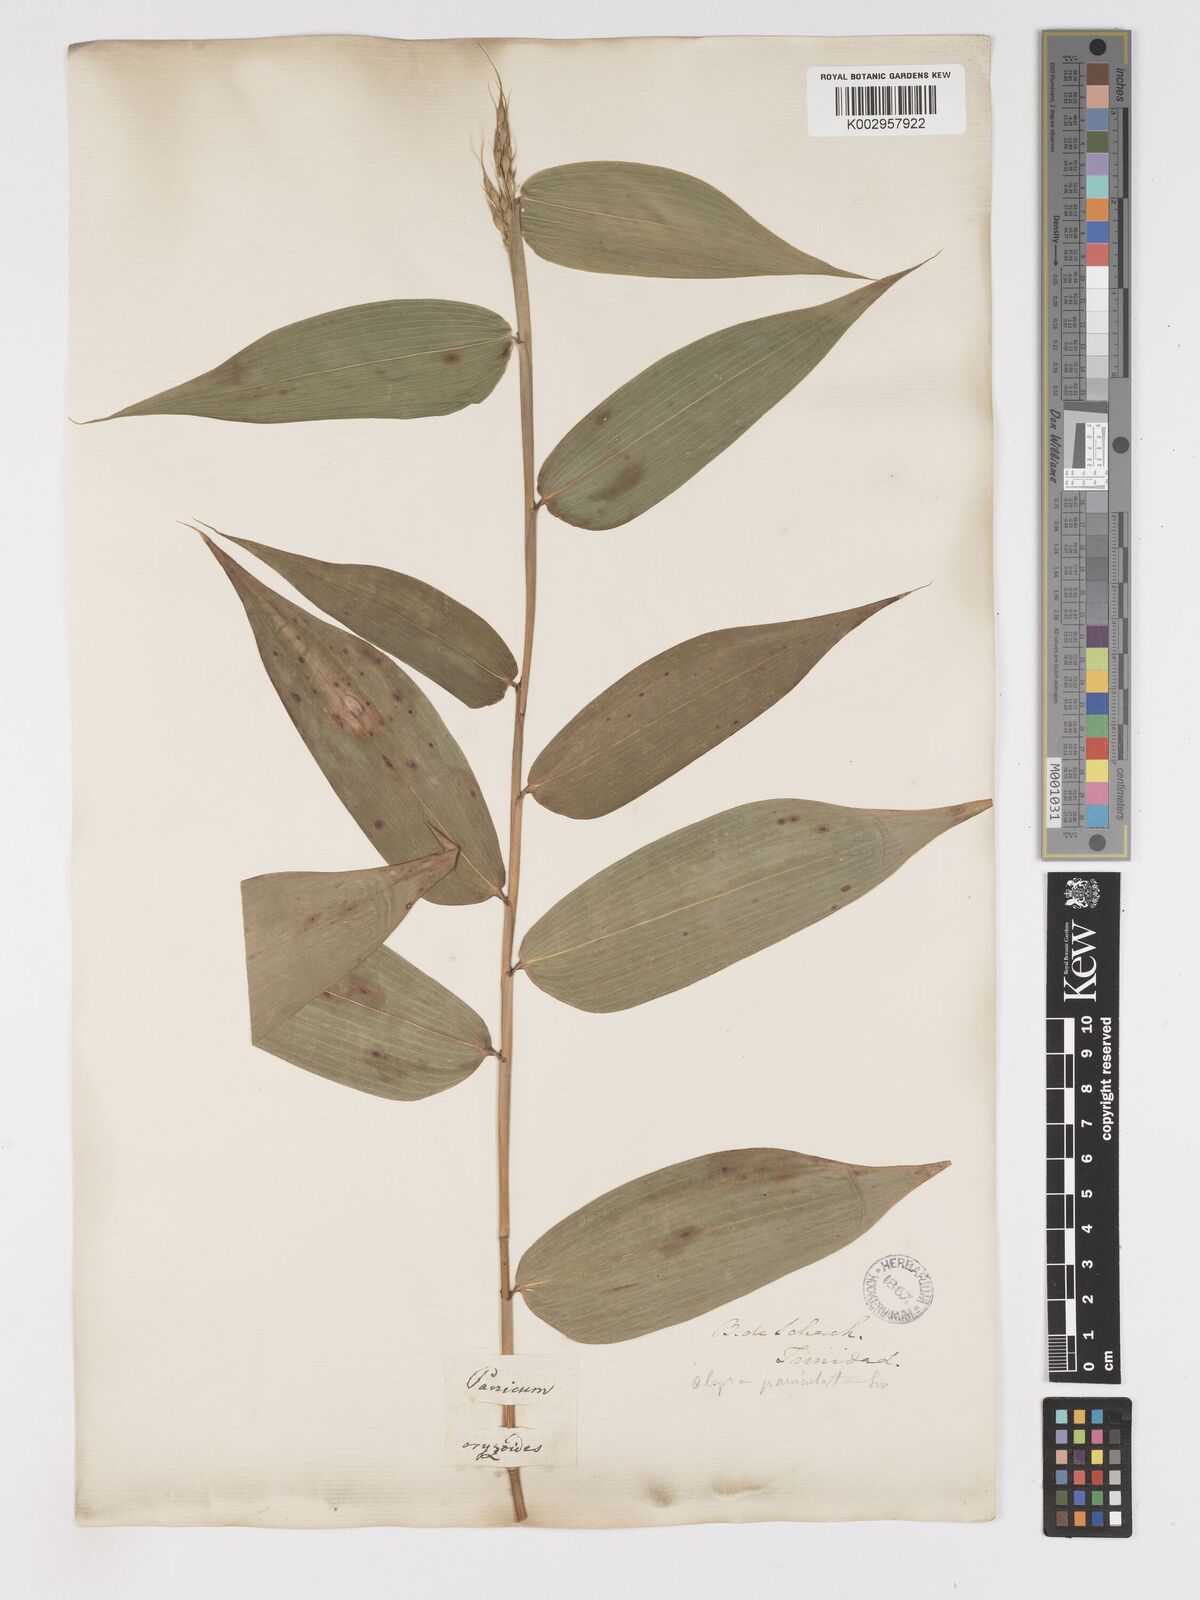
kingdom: Plantae
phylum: Tracheophyta
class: Liliopsida
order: Poales
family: Poaceae
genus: Olyra
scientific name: Olyra latifolia
